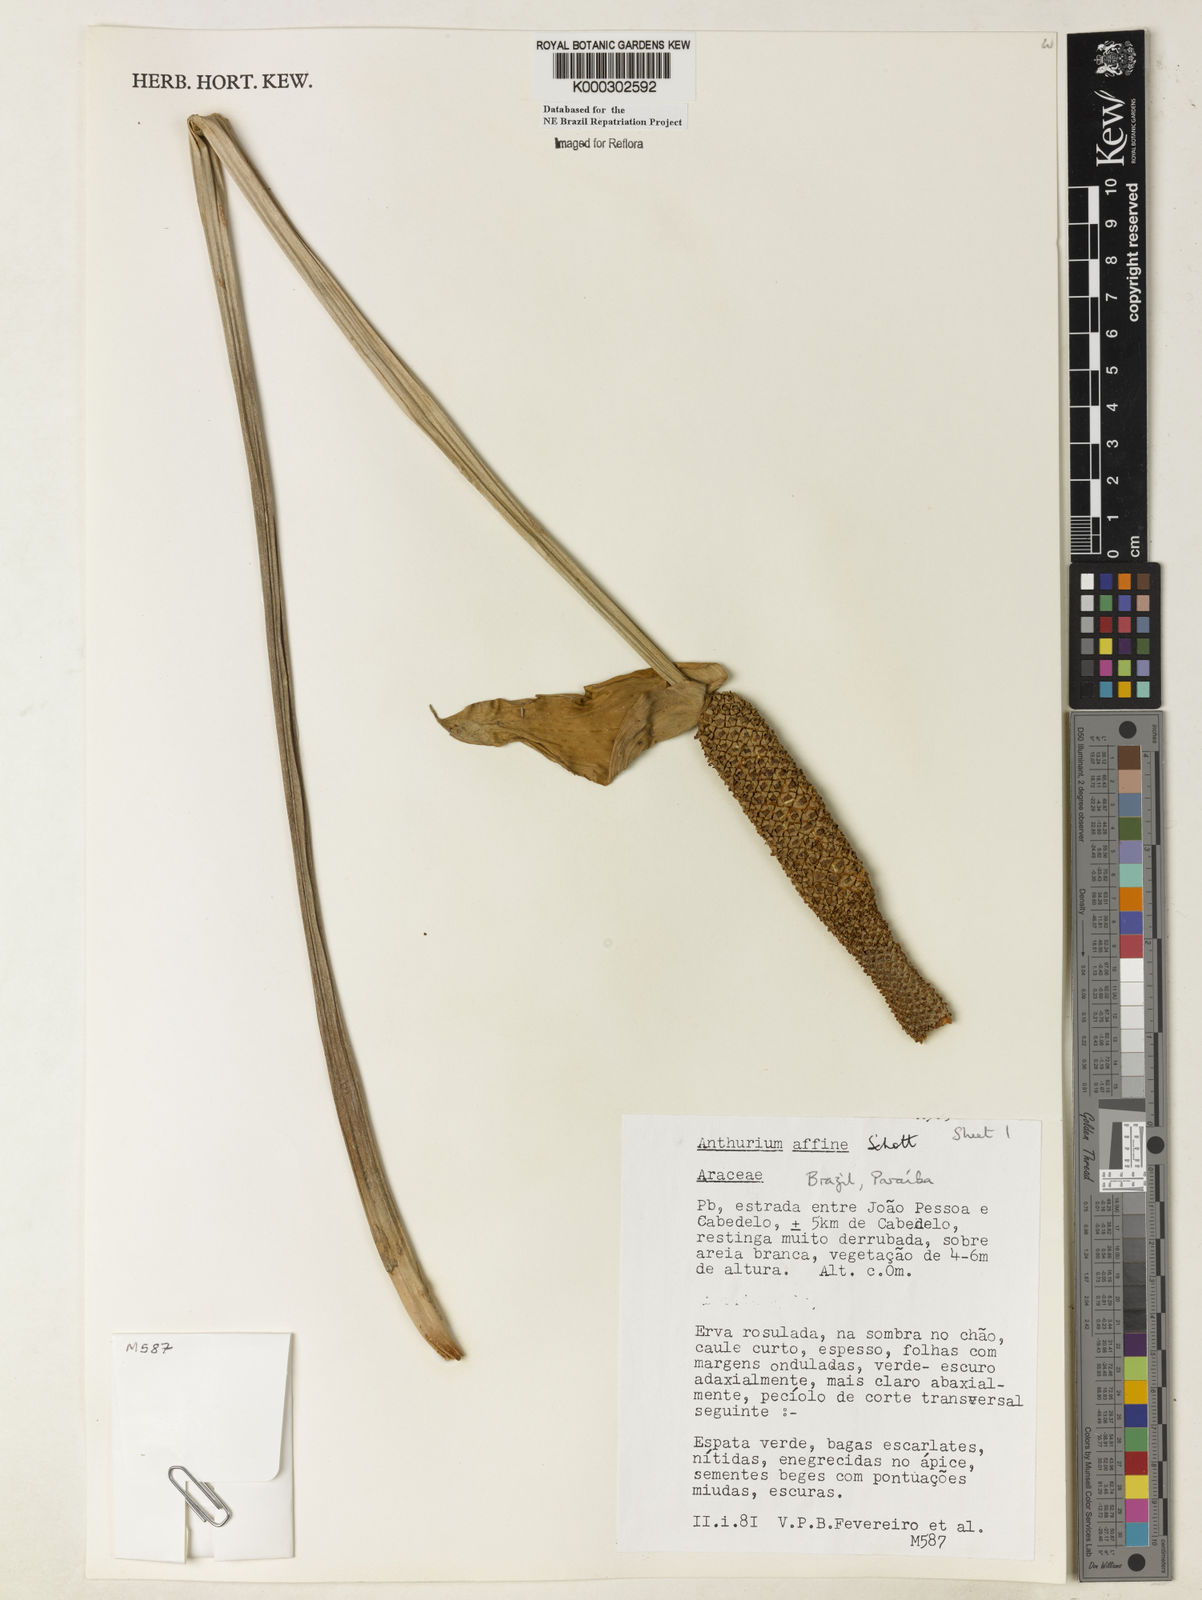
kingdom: Plantae
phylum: Tracheophyta
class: Liliopsida
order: Alismatales
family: Araceae
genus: Anthurium
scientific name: Anthurium affine
